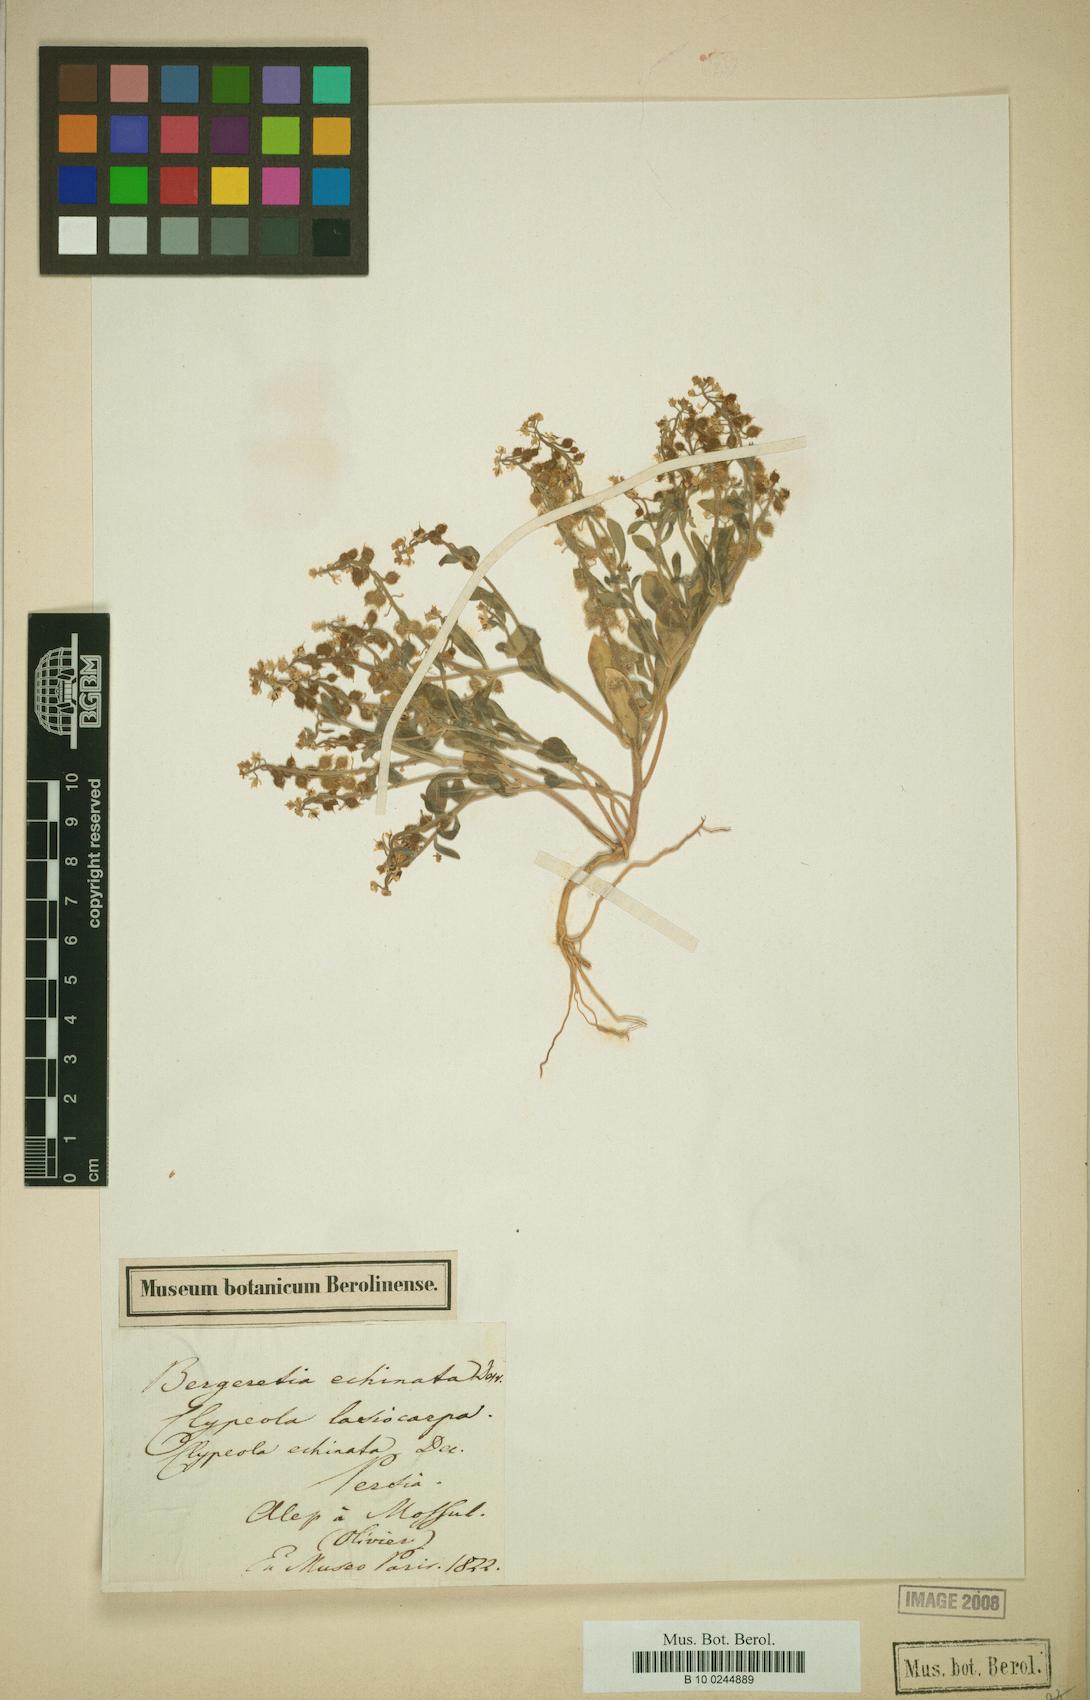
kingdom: Plantae
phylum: Tracheophyta
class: Magnoliopsida
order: Brassicales
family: Brassicaceae
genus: Clypeola
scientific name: Clypeola aspera
